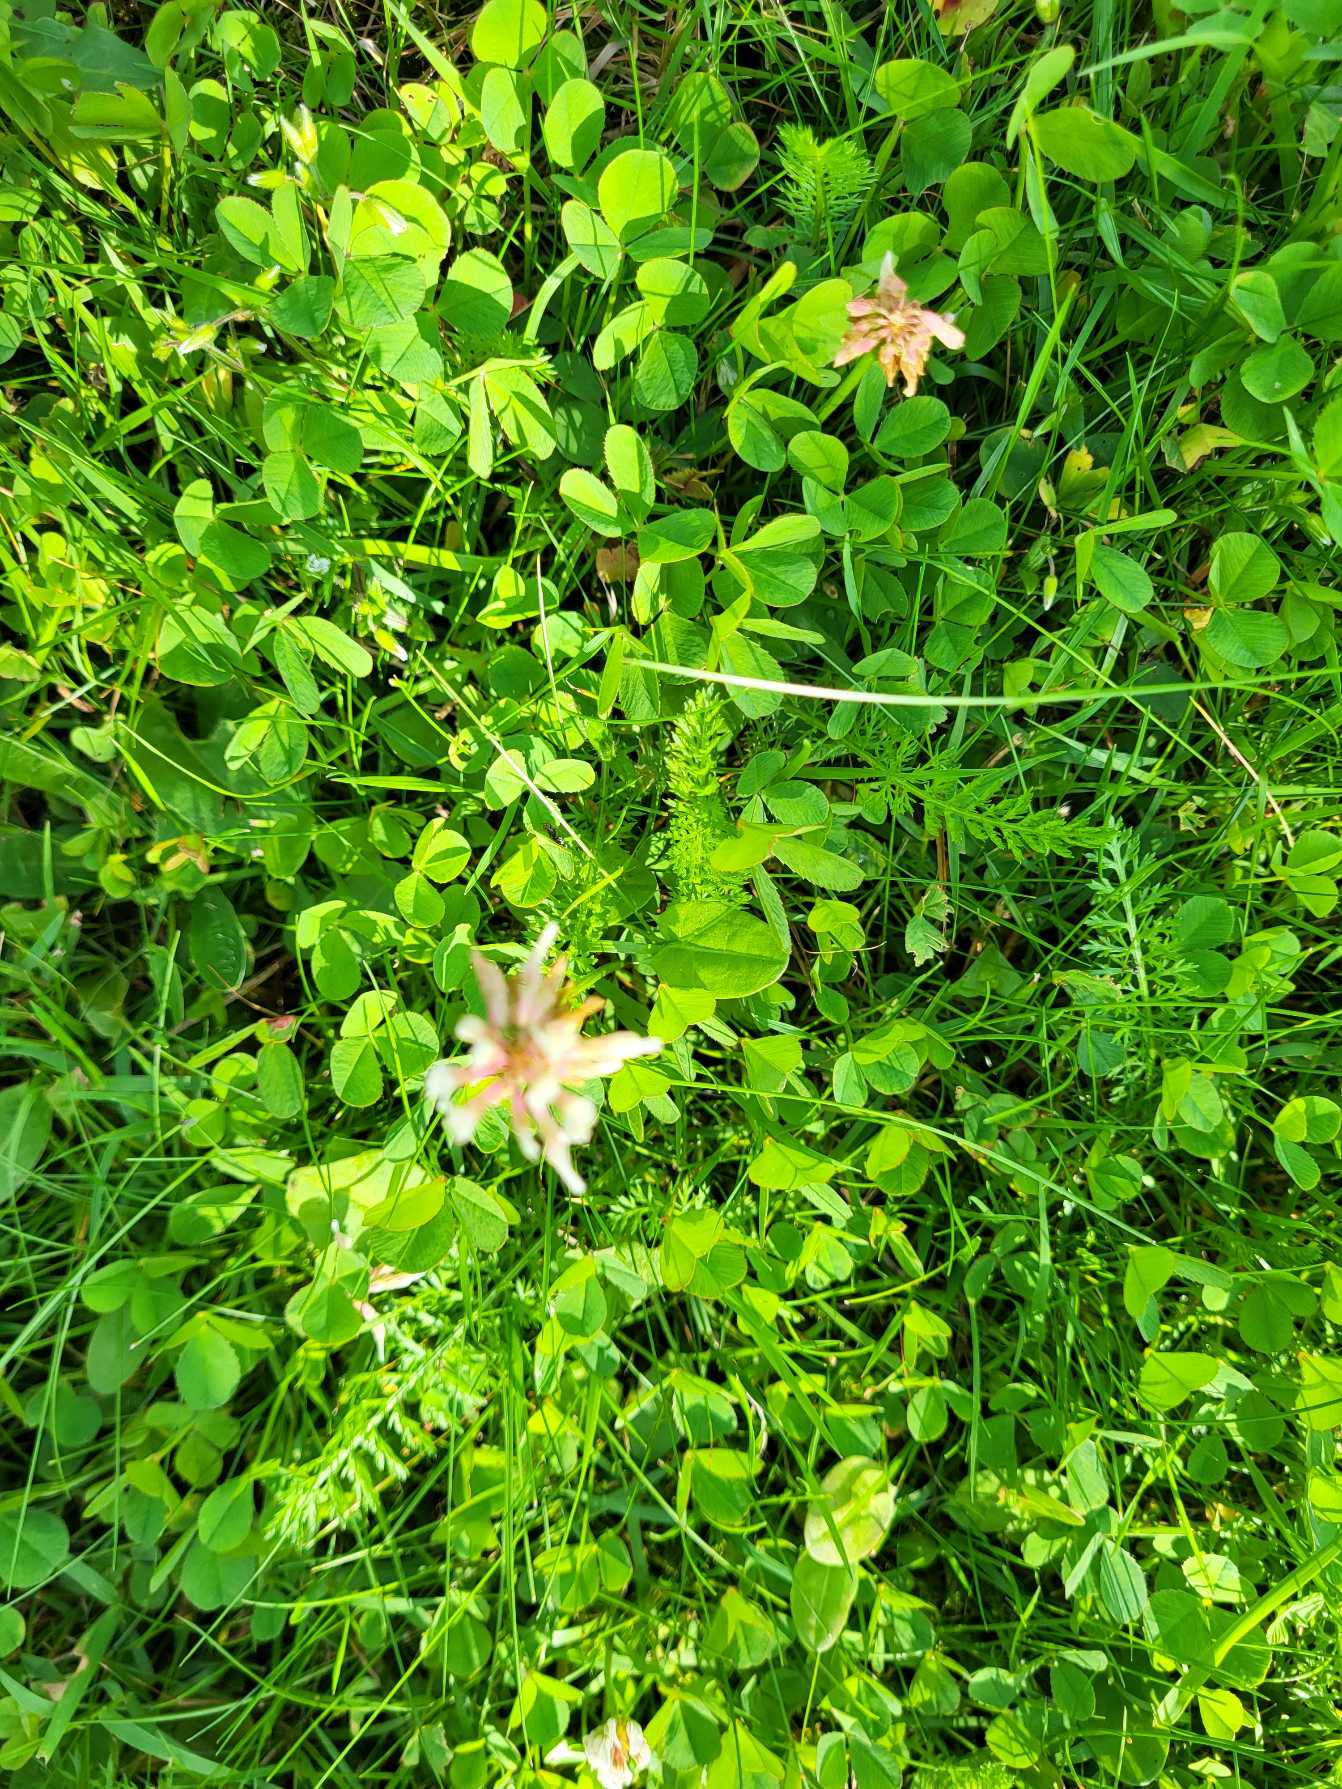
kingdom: Plantae
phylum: Tracheophyta
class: Magnoliopsida
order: Fabales
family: Fabaceae
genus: Trifolium
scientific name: Trifolium repens
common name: Hvid-kløver
